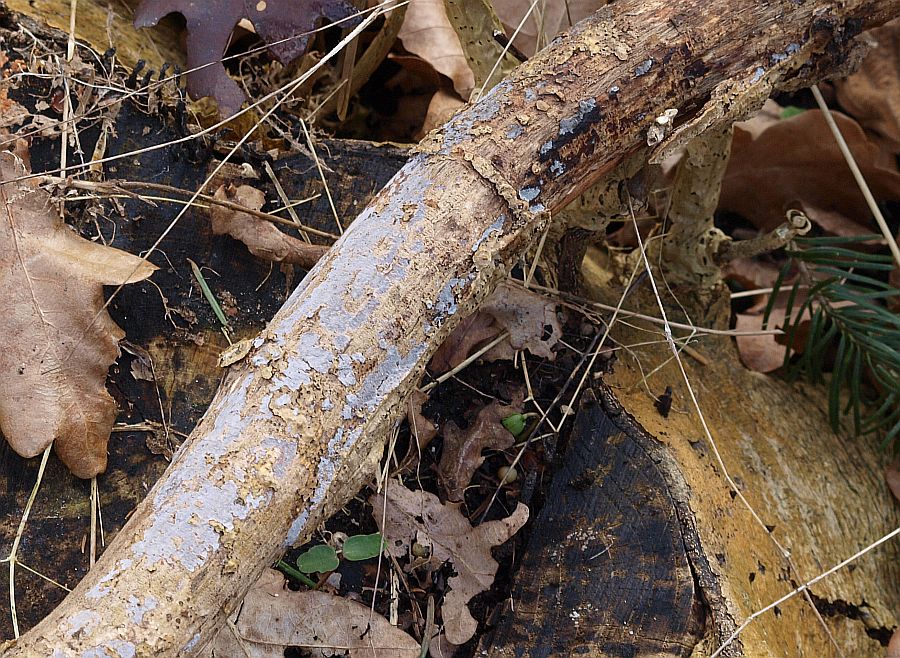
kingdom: Fungi
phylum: Basidiomycota
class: Agaricomycetes
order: Russulales
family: Peniophoraceae
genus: Peniophora
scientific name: Peniophora lycii
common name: grynet voksskind
